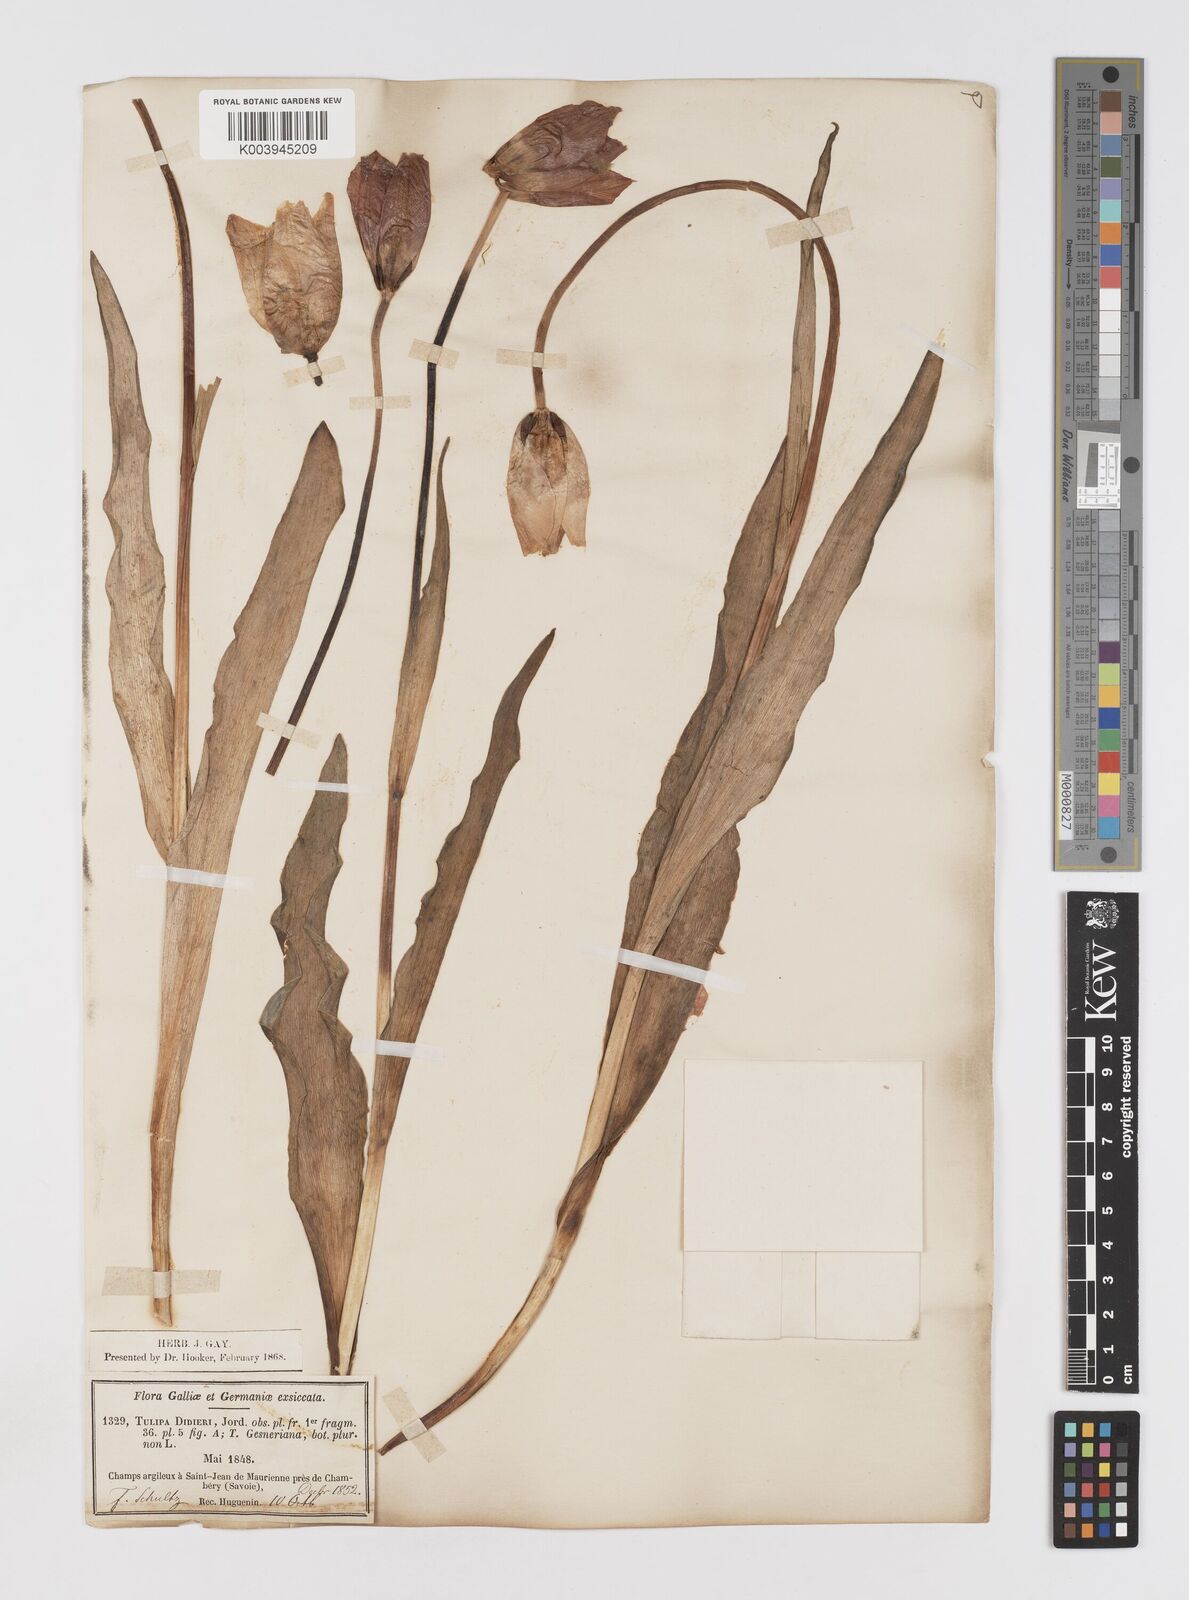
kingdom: Plantae
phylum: Tracheophyta
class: Liliopsida
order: Liliales
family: Liliaceae
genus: Tulipa
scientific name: Tulipa gesneriana
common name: Garden tulip
